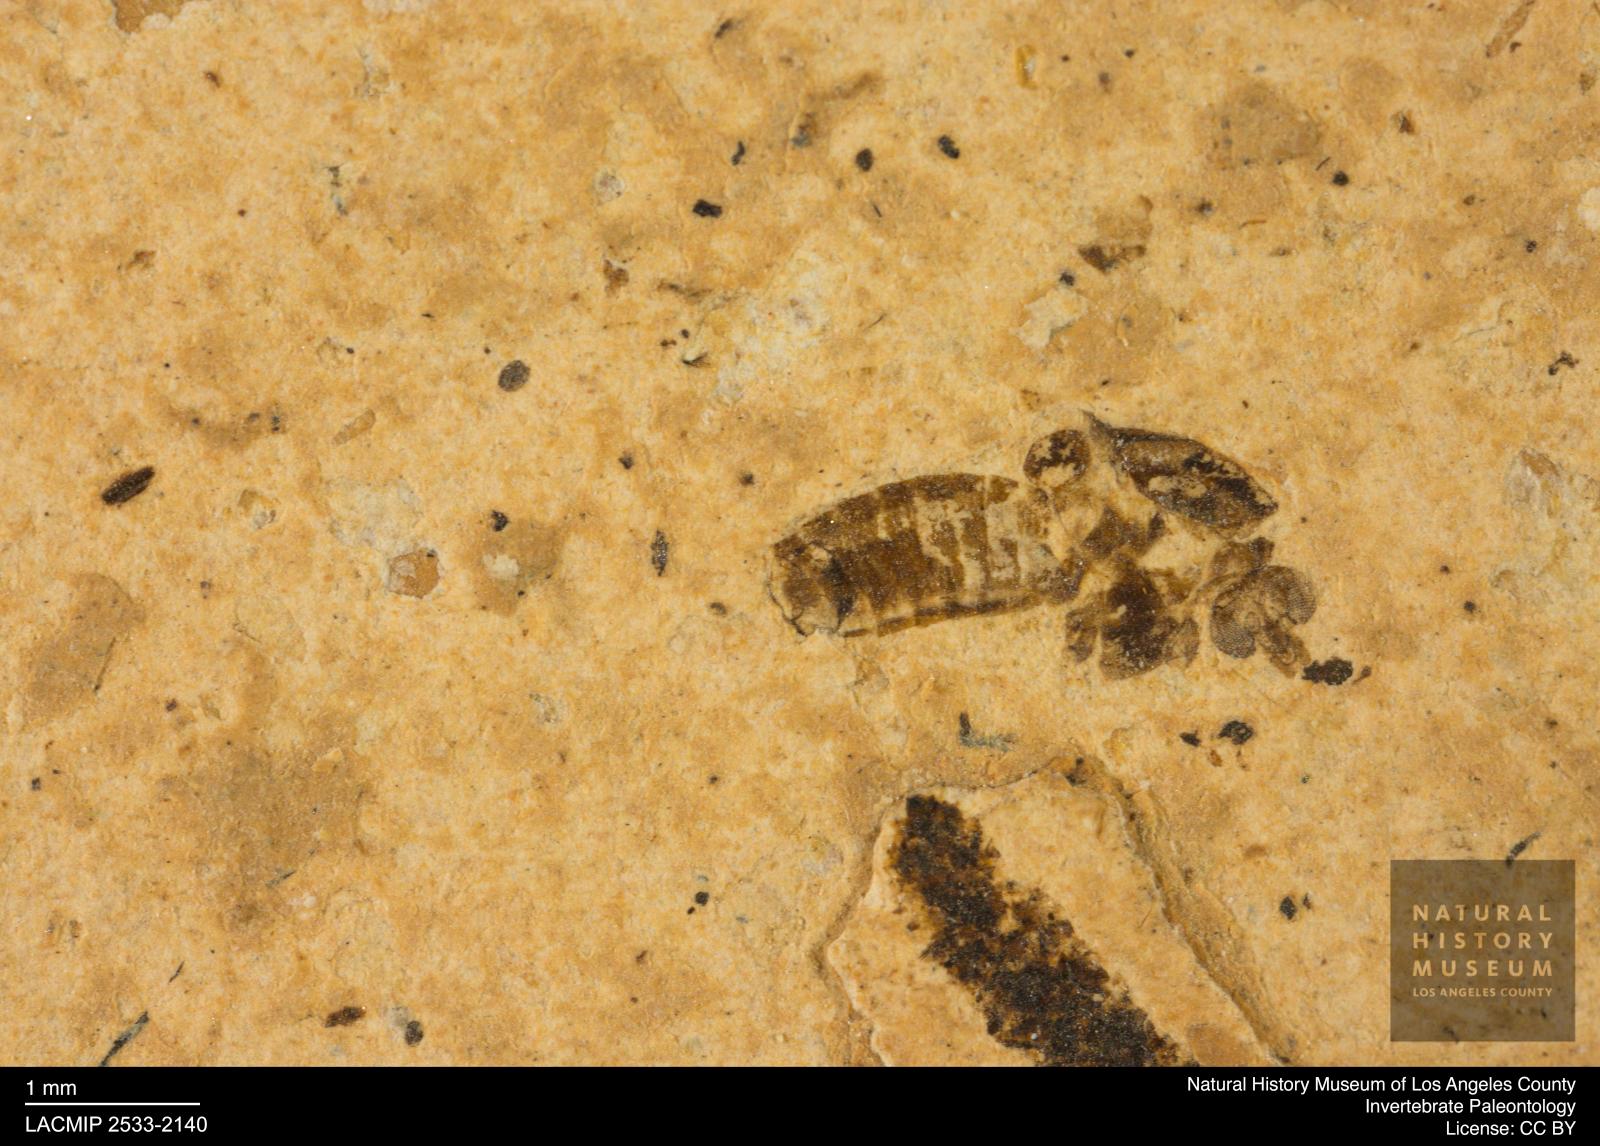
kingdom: Animalia
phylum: Arthropoda
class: Insecta
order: Diptera
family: Chironomidae
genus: Tanypus
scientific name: Tanypus dorminans
